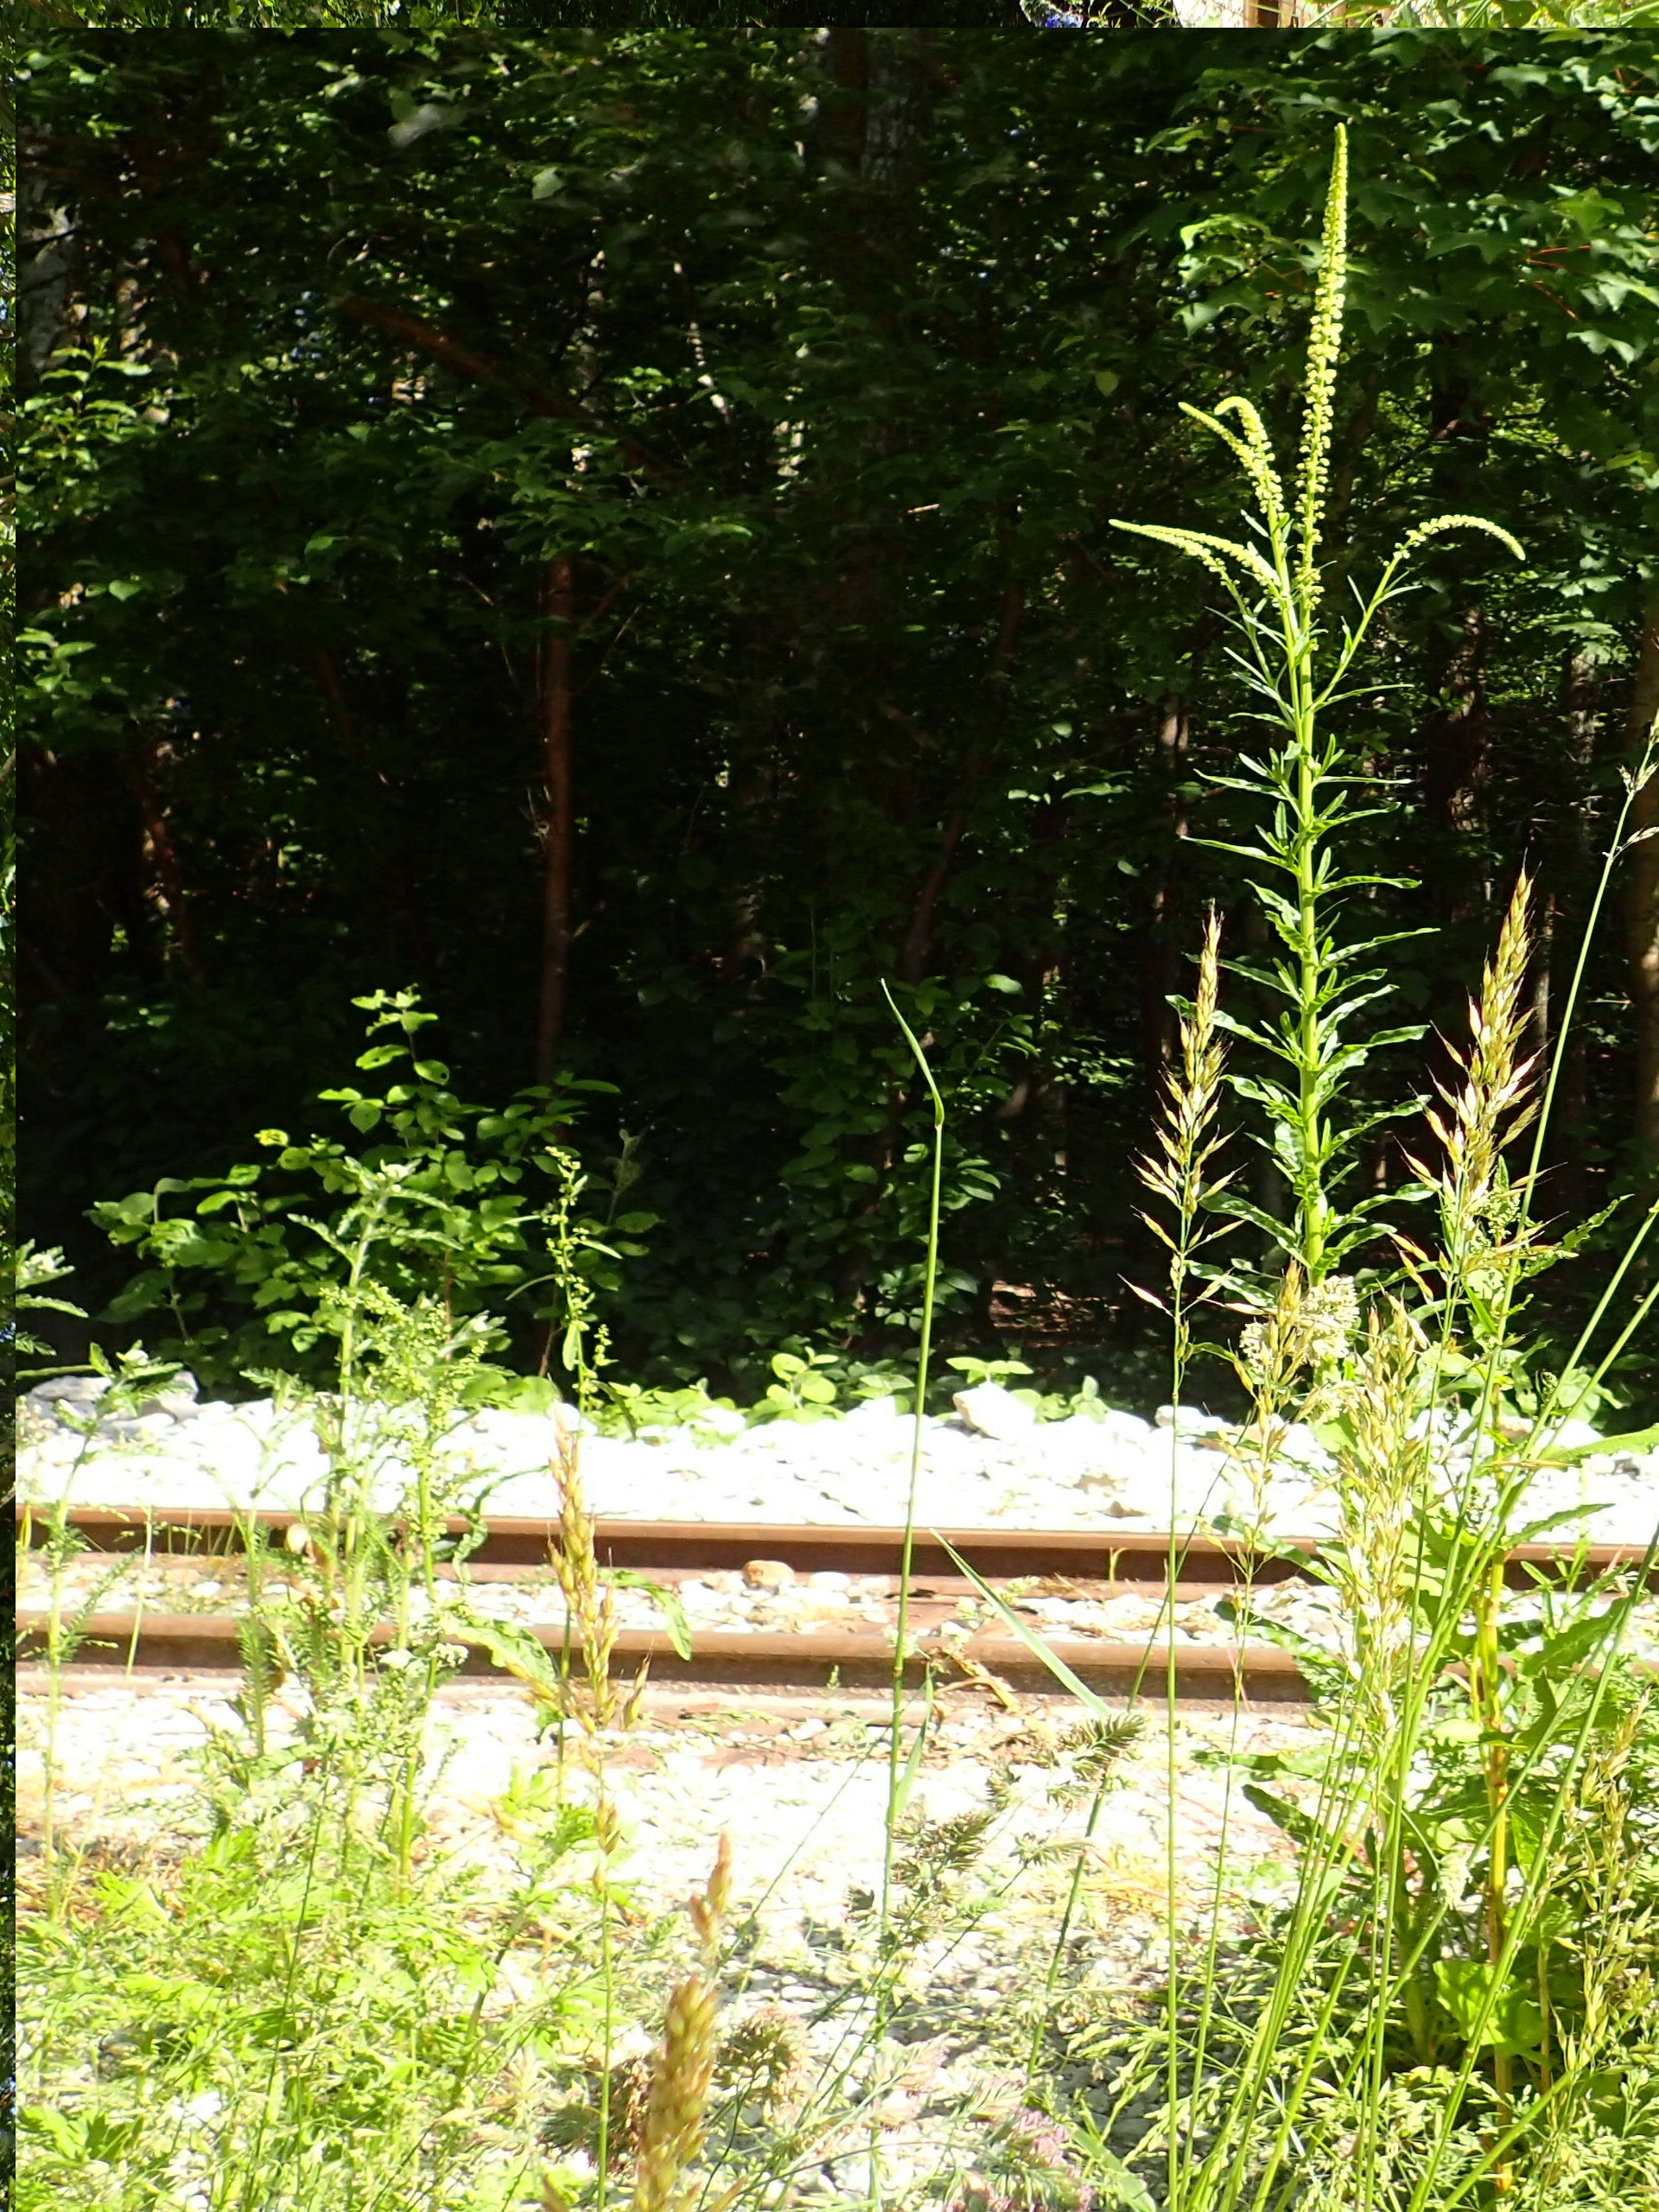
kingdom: Plantae
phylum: Tracheophyta
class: Magnoliopsida
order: Brassicales
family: Resedaceae
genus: Reseda
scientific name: Reseda luteola
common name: Farve-reseda
